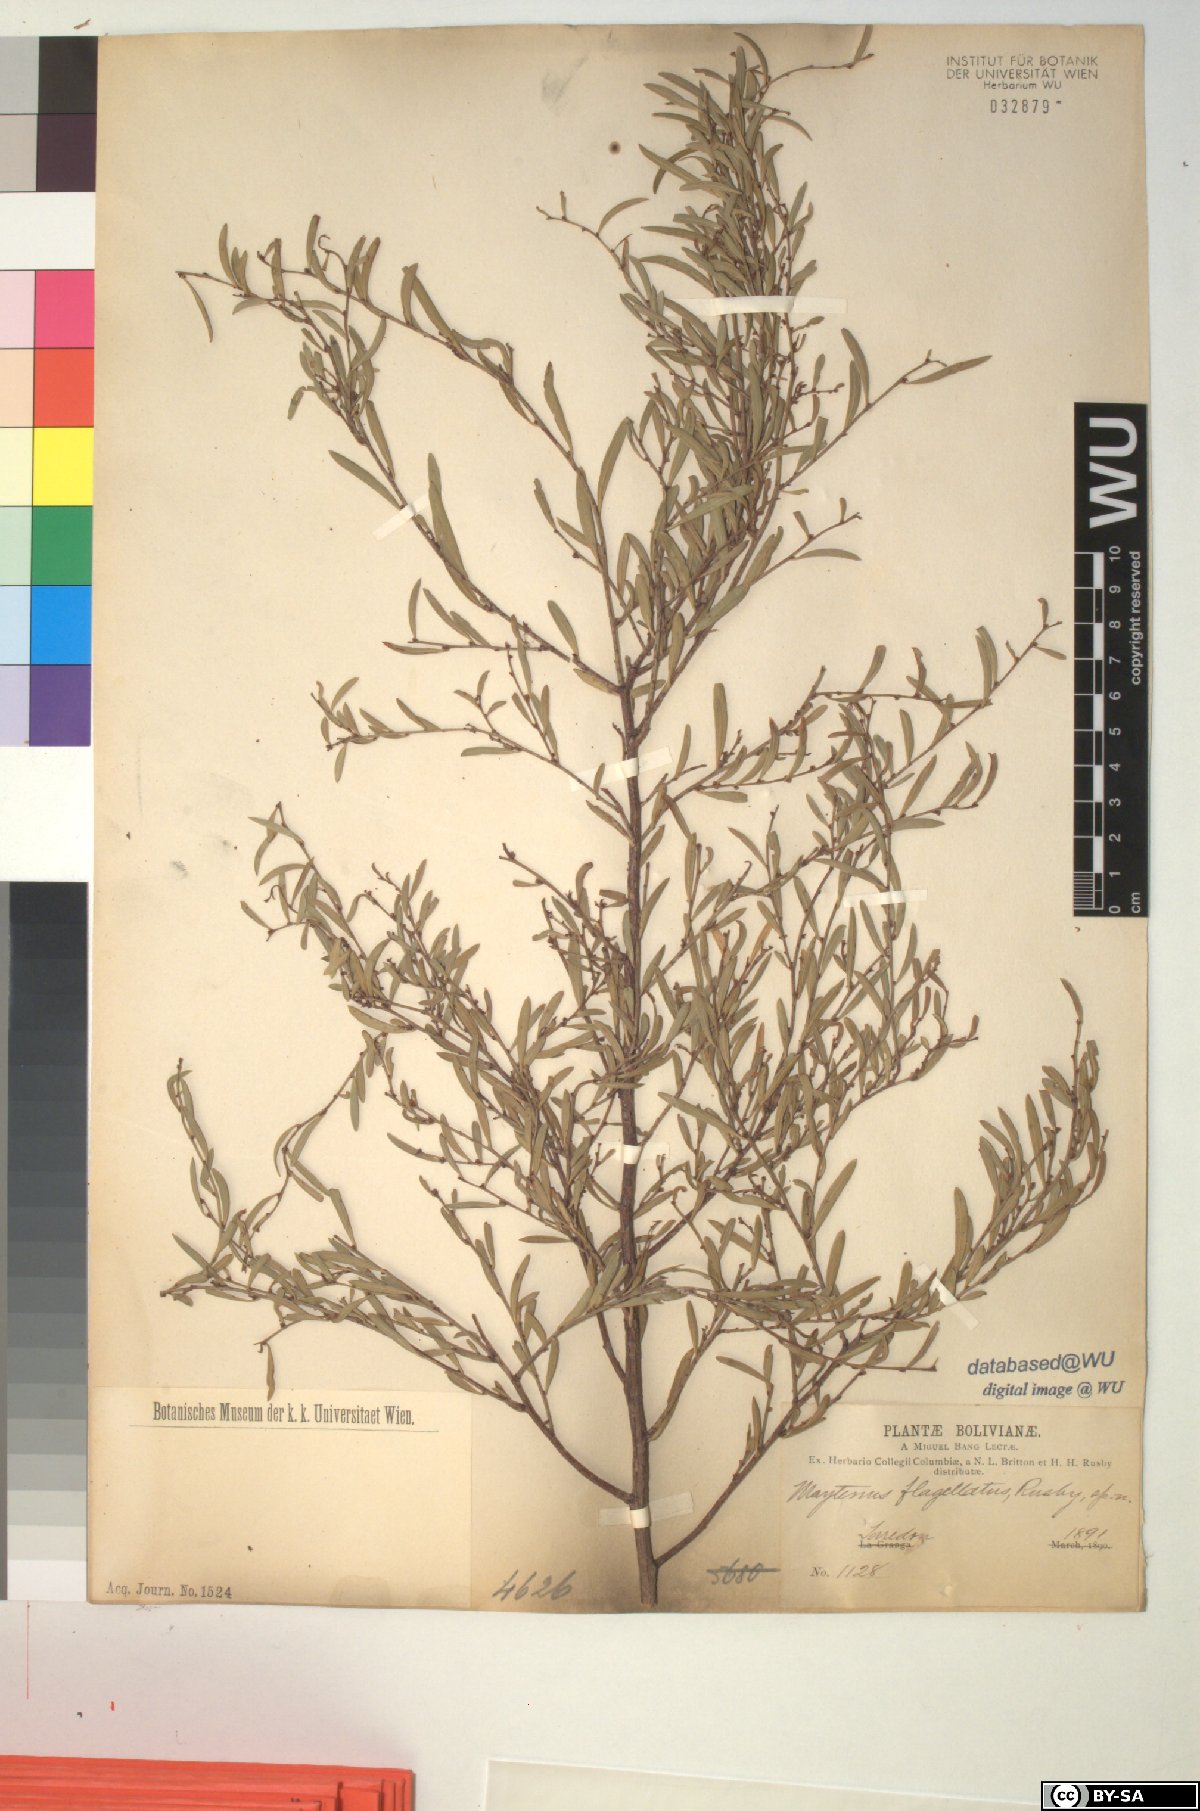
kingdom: Plantae
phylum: Tracheophyta
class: Magnoliopsida
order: Celastrales
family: Celastraceae
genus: Monteverdia
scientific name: Monteverdia flagellata
